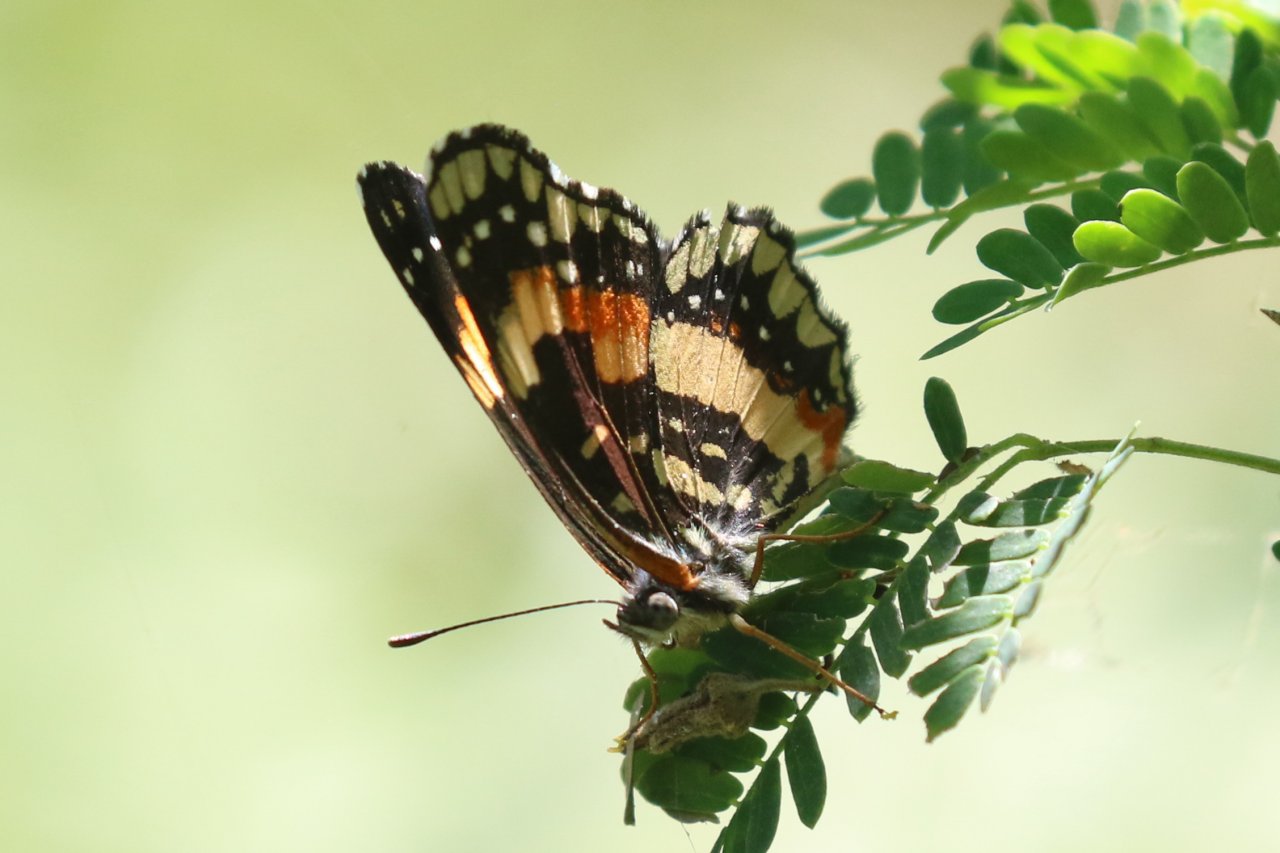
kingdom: Animalia
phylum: Arthropoda
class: Insecta
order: Lepidoptera
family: Nymphalidae
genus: Chlosyne
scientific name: Chlosyne lacinia
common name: Bordered Patch
